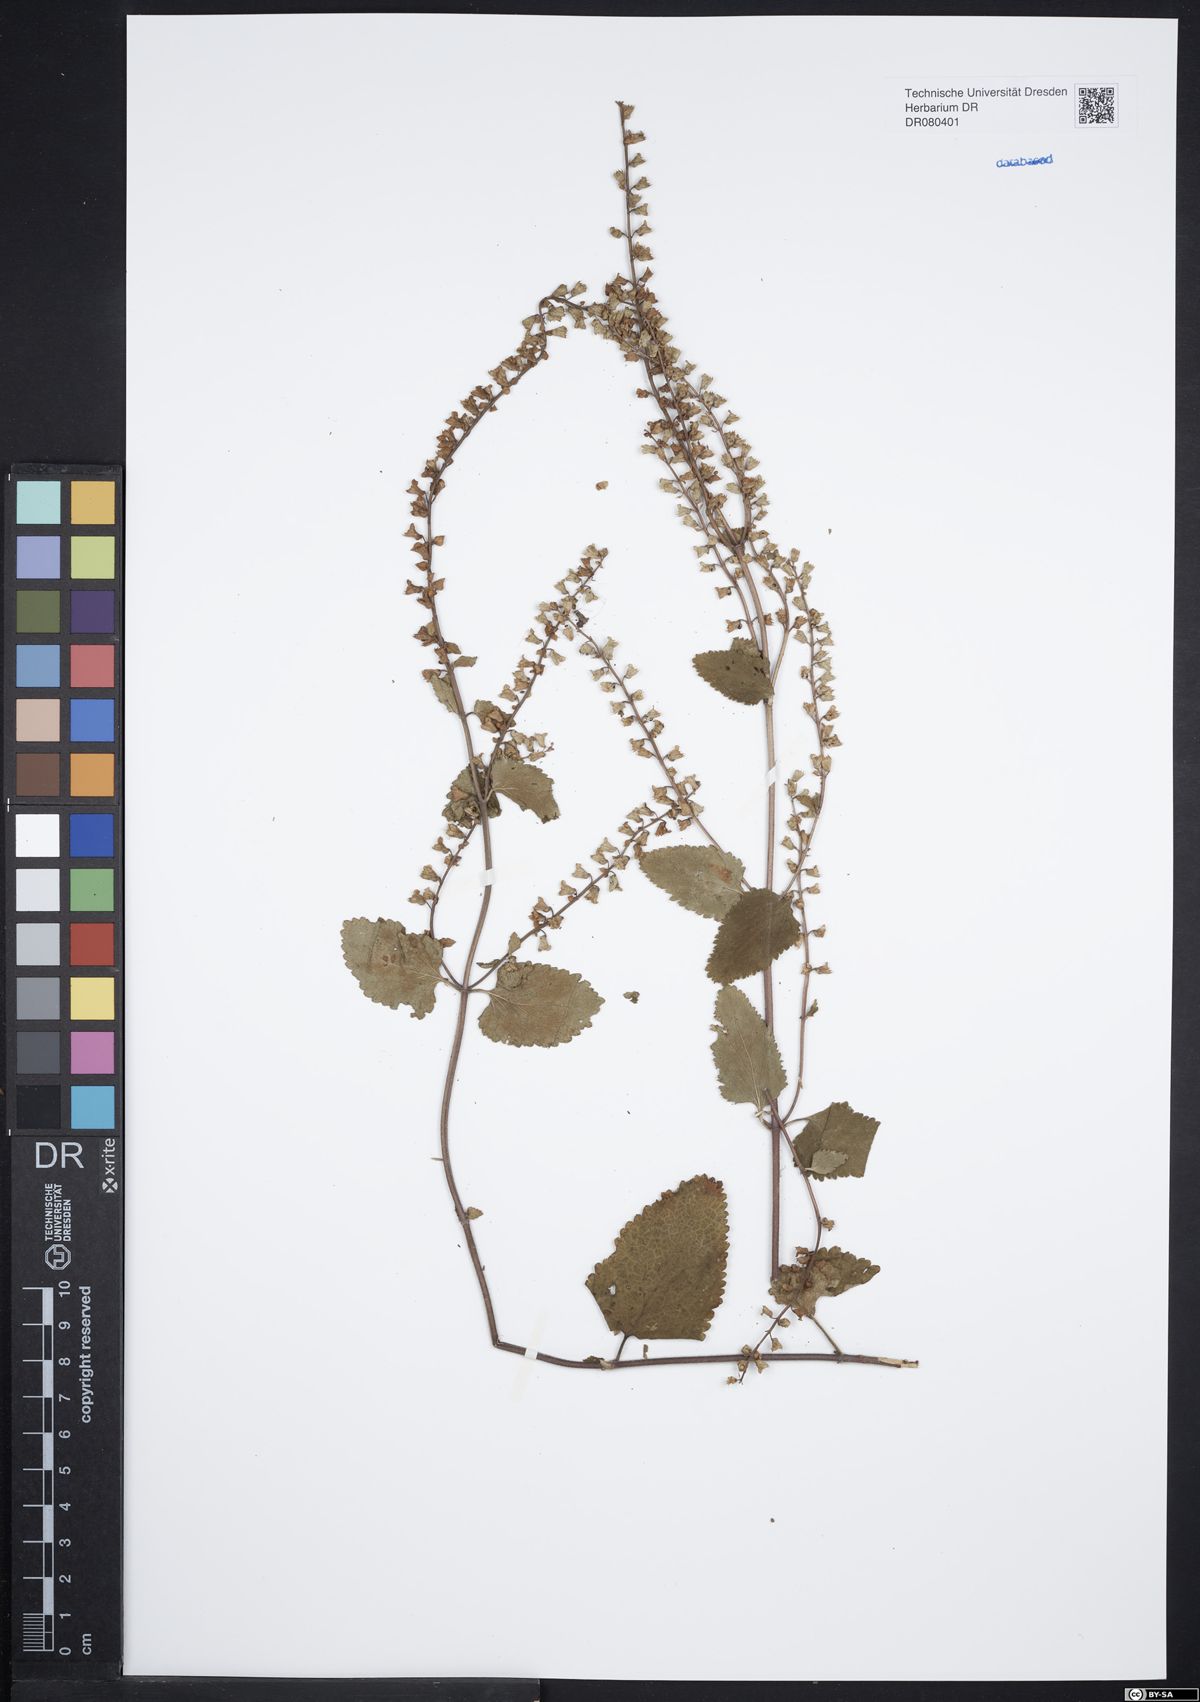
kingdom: Plantae
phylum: Tracheophyta
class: Magnoliopsida
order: Lamiales
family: Lamiaceae
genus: Teucrium
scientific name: Teucrium scorodonia
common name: Woodland germander
